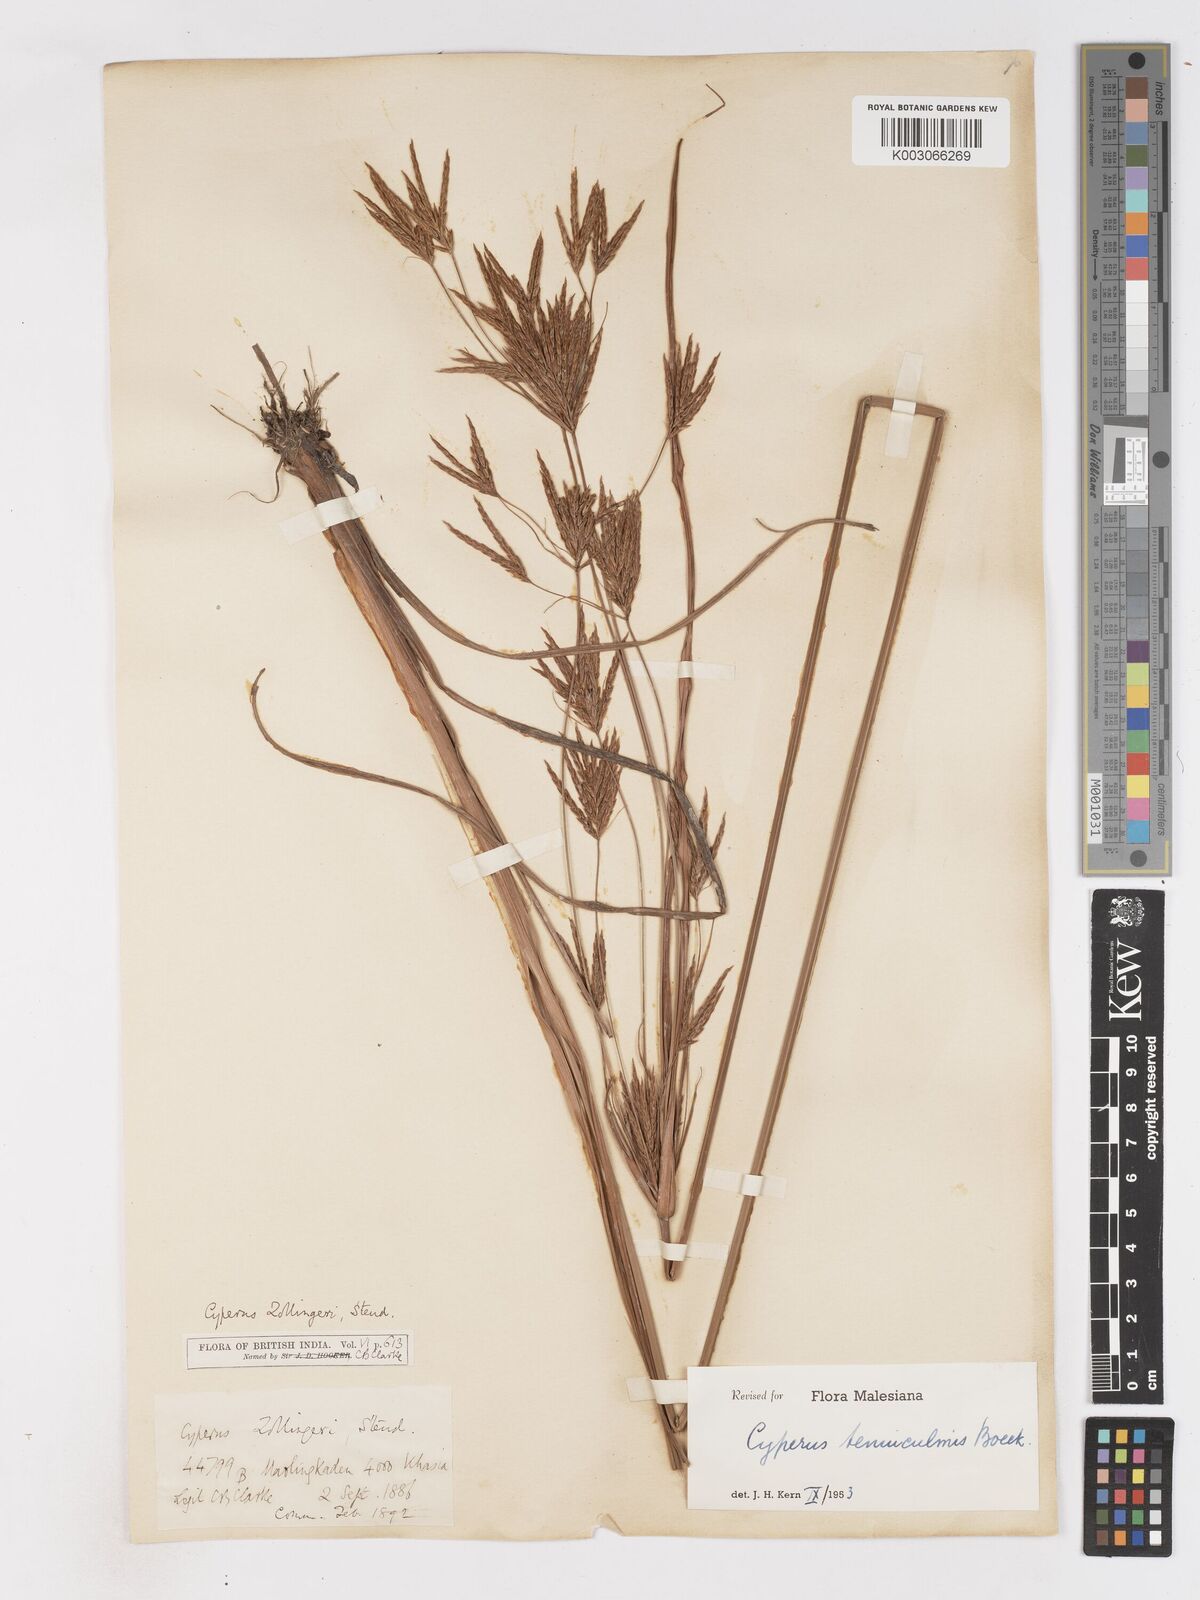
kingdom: Plantae
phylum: Tracheophyta
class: Liliopsida
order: Poales
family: Cyperaceae
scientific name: Cyperaceae
